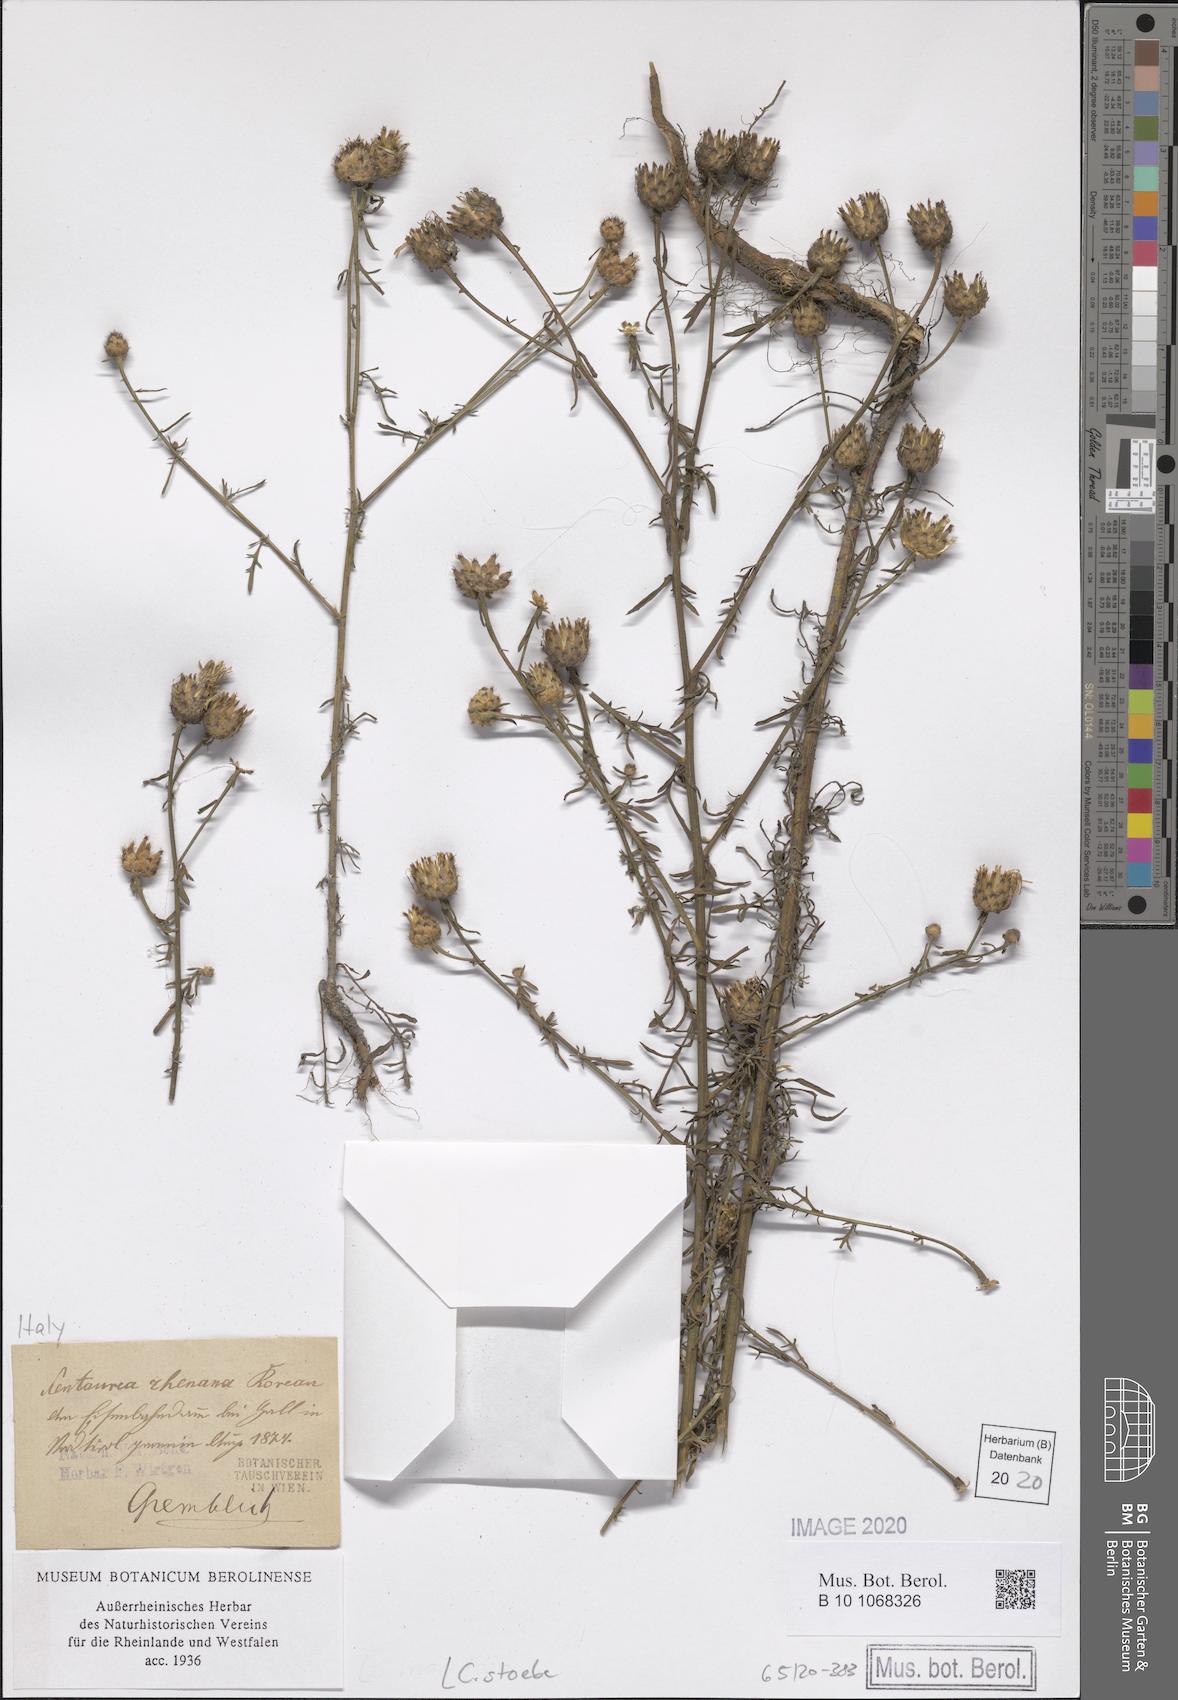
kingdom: Plantae
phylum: Tracheophyta
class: Magnoliopsida
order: Asterales
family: Asteraceae
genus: Centaurea
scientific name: Centaurea stoebe
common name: Spotted knapweed
